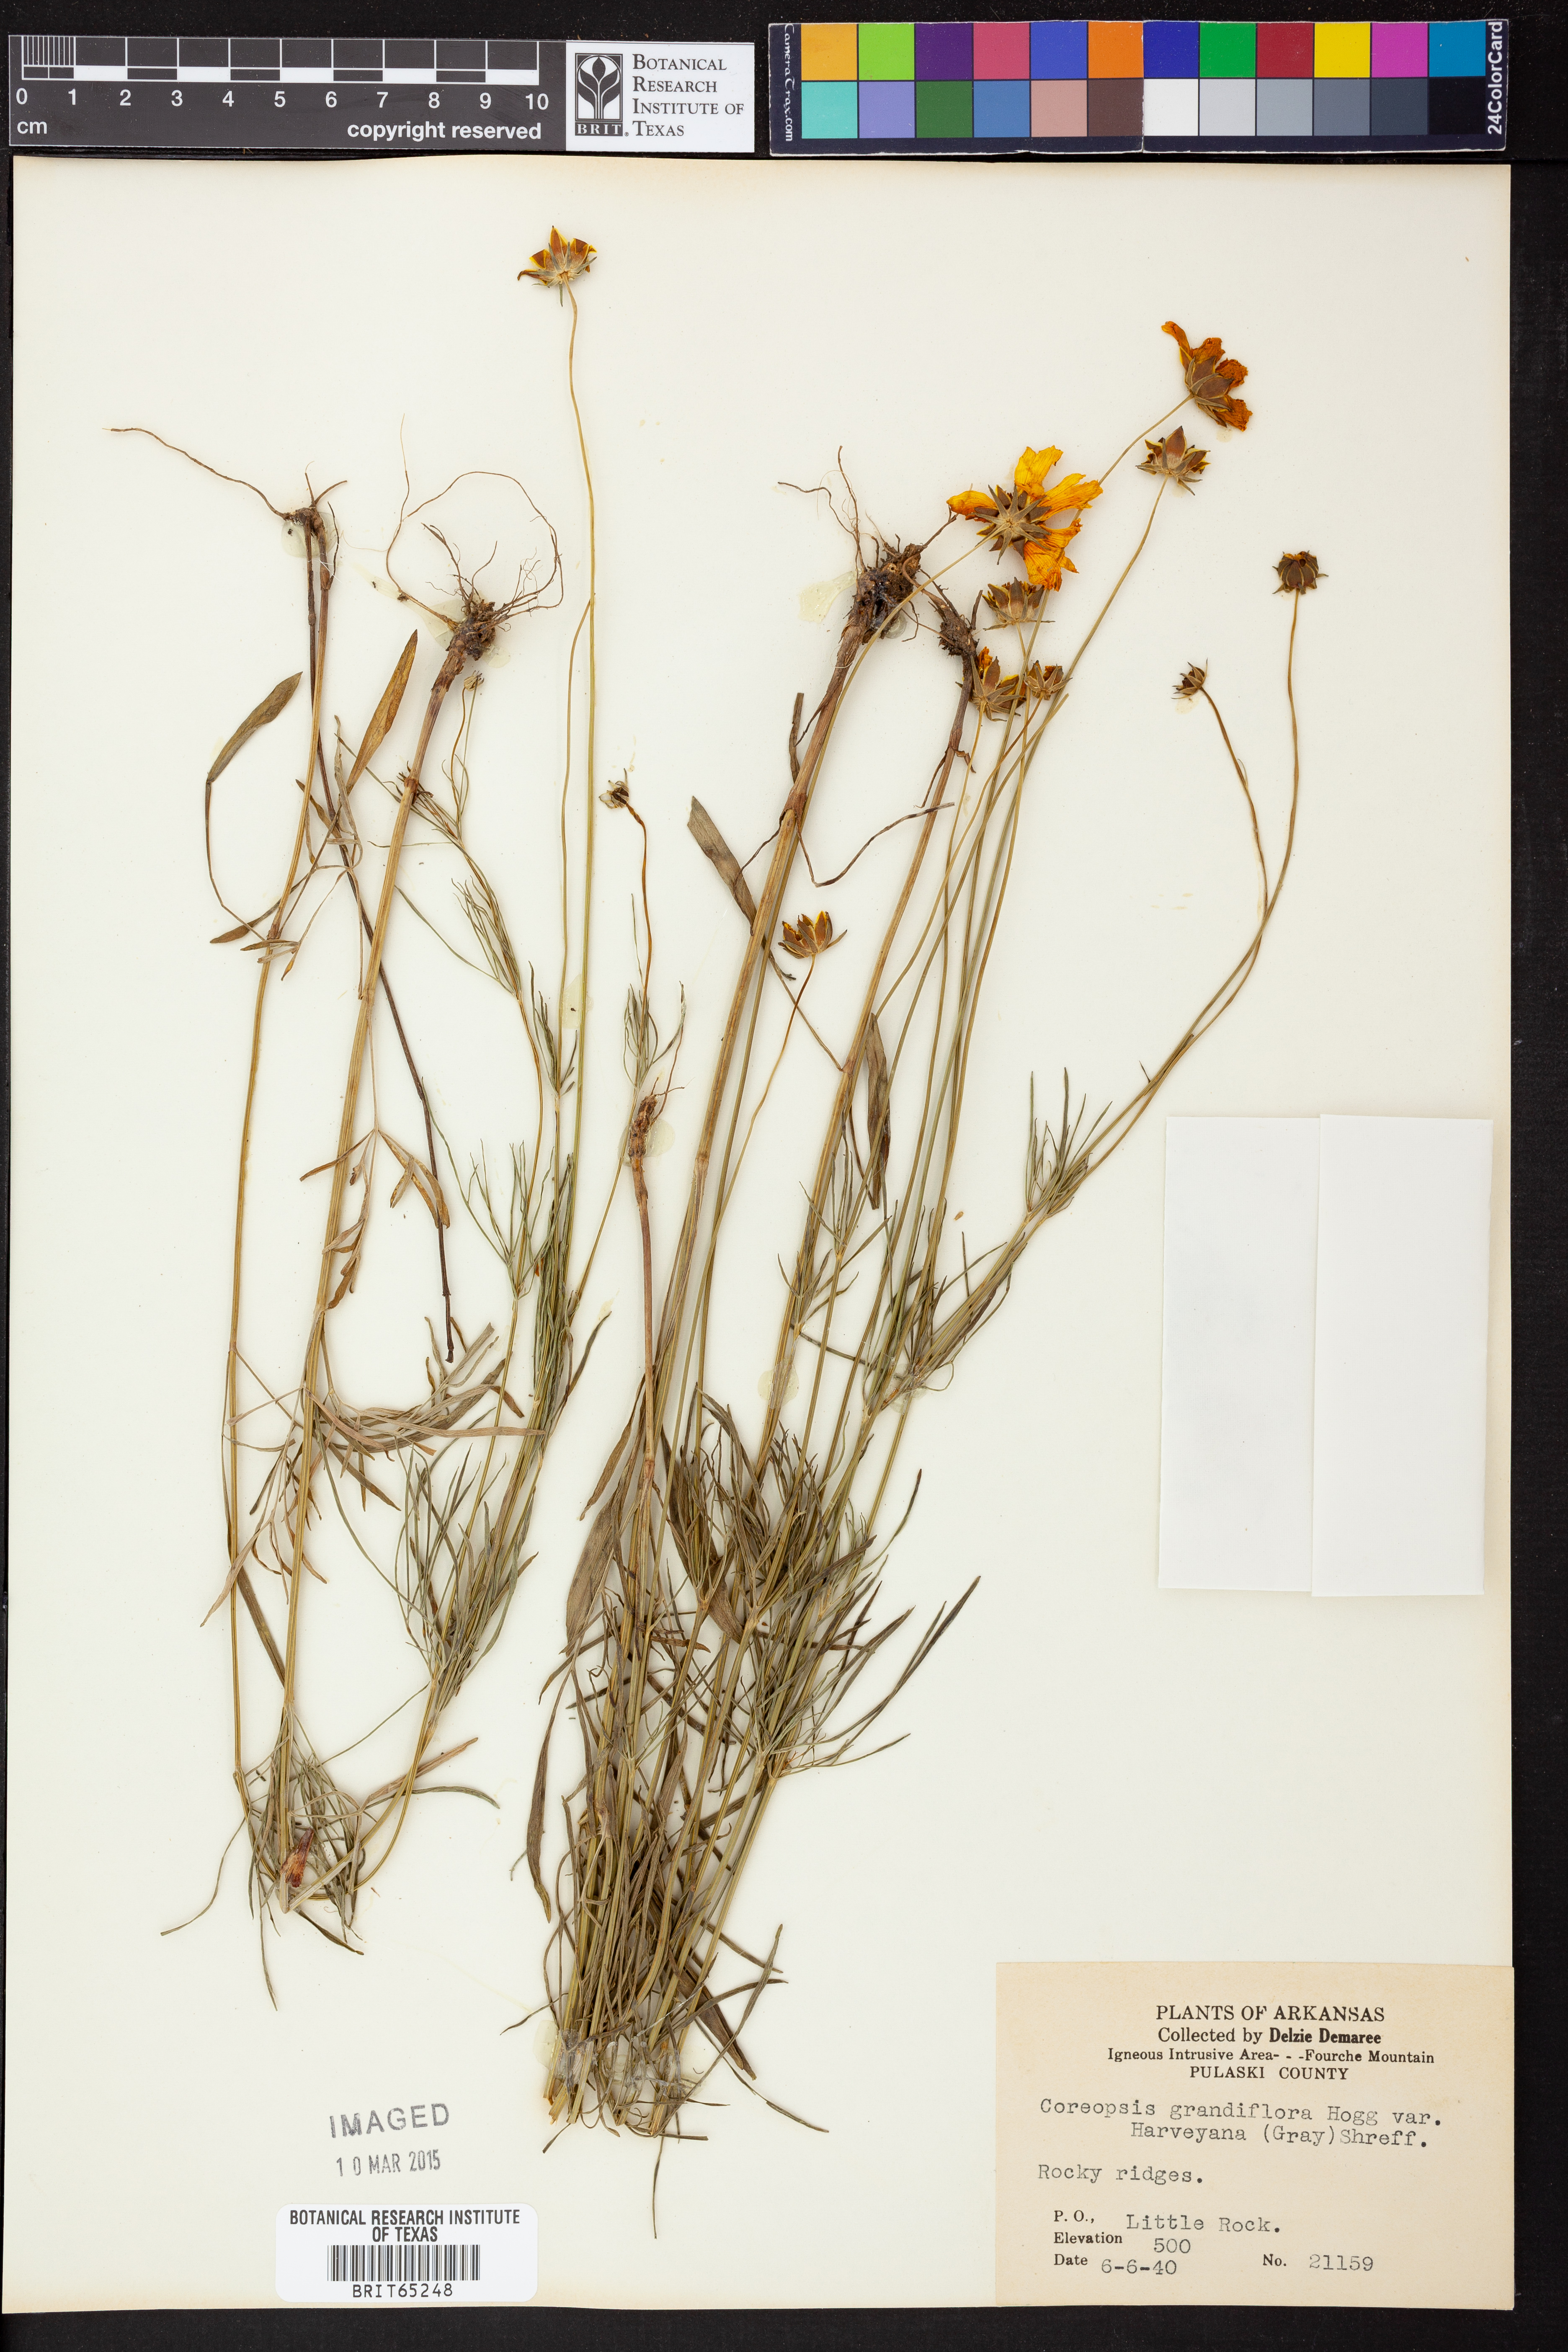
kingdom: Plantae
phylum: Tracheophyta
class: Magnoliopsida
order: Asterales
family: Asteraceae
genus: Coreopsis
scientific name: Coreopsis grandiflora
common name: Large-flowered tickseed
